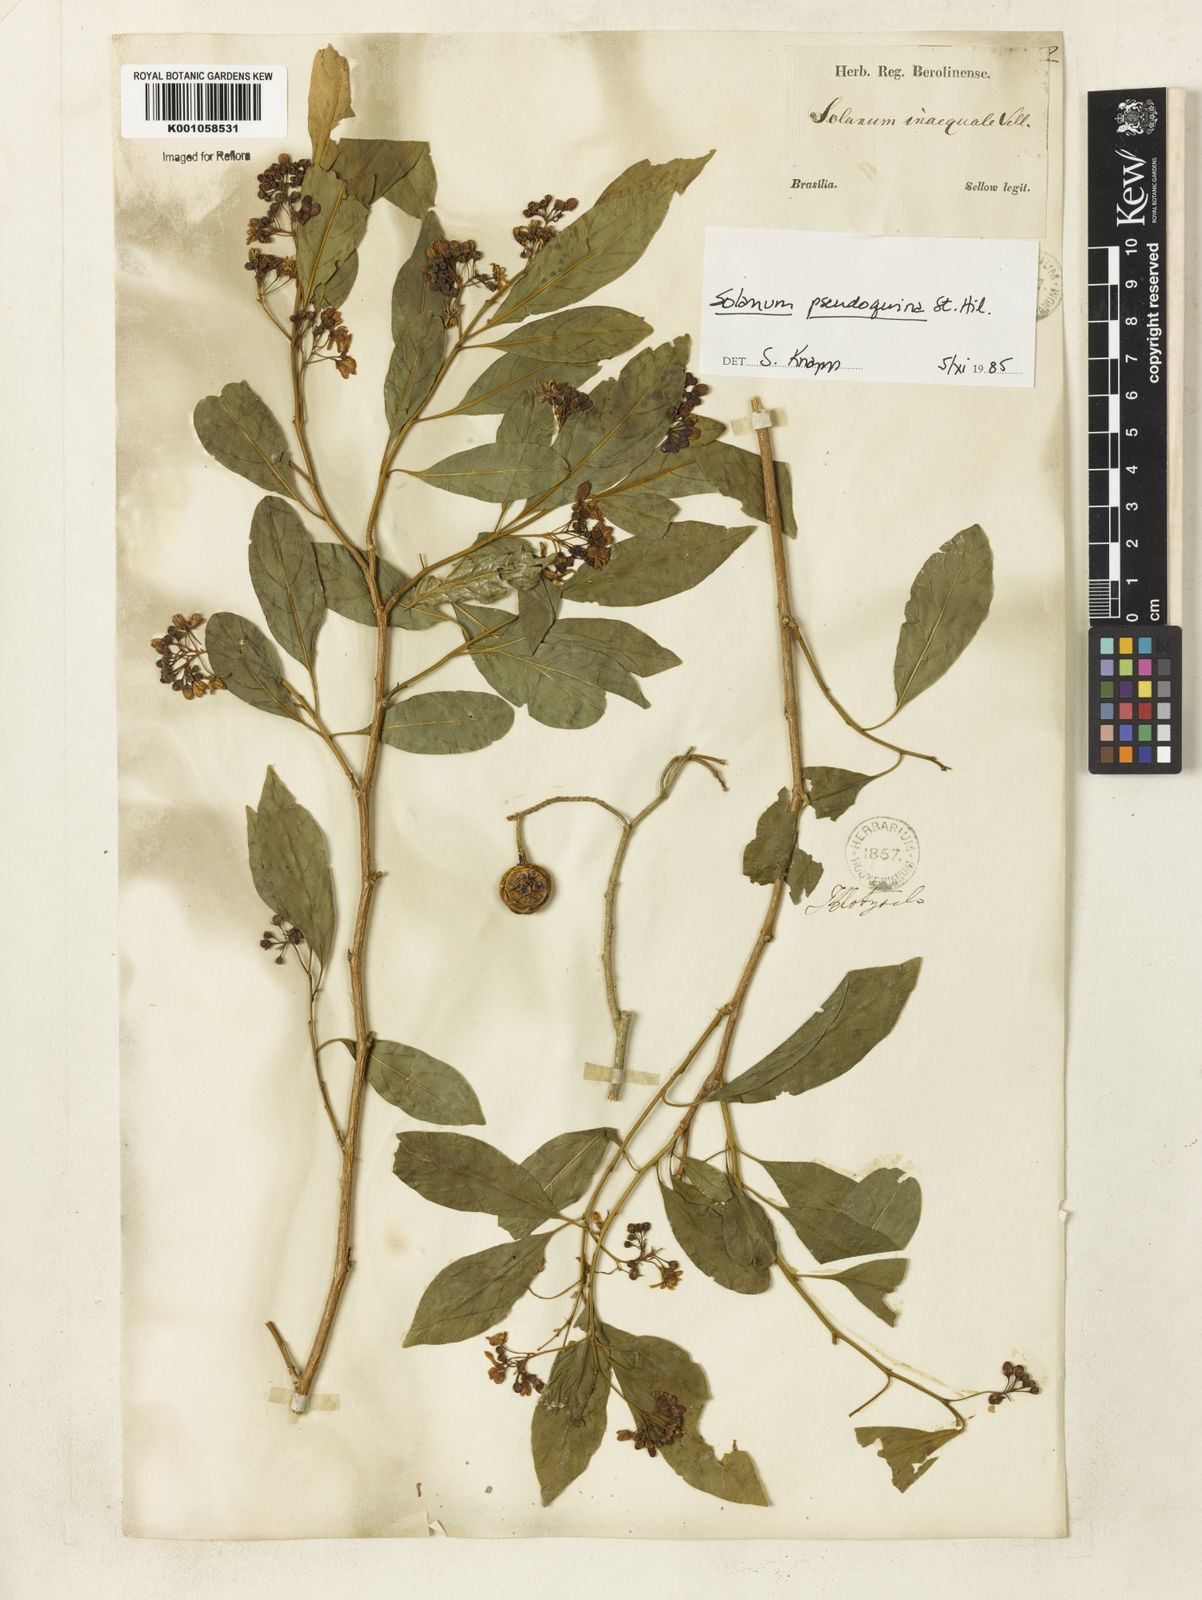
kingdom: Plantae
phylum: Tracheophyta
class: Magnoliopsida
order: Solanales
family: Solanaceae
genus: Solanum
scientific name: Solanum pseudoquina
